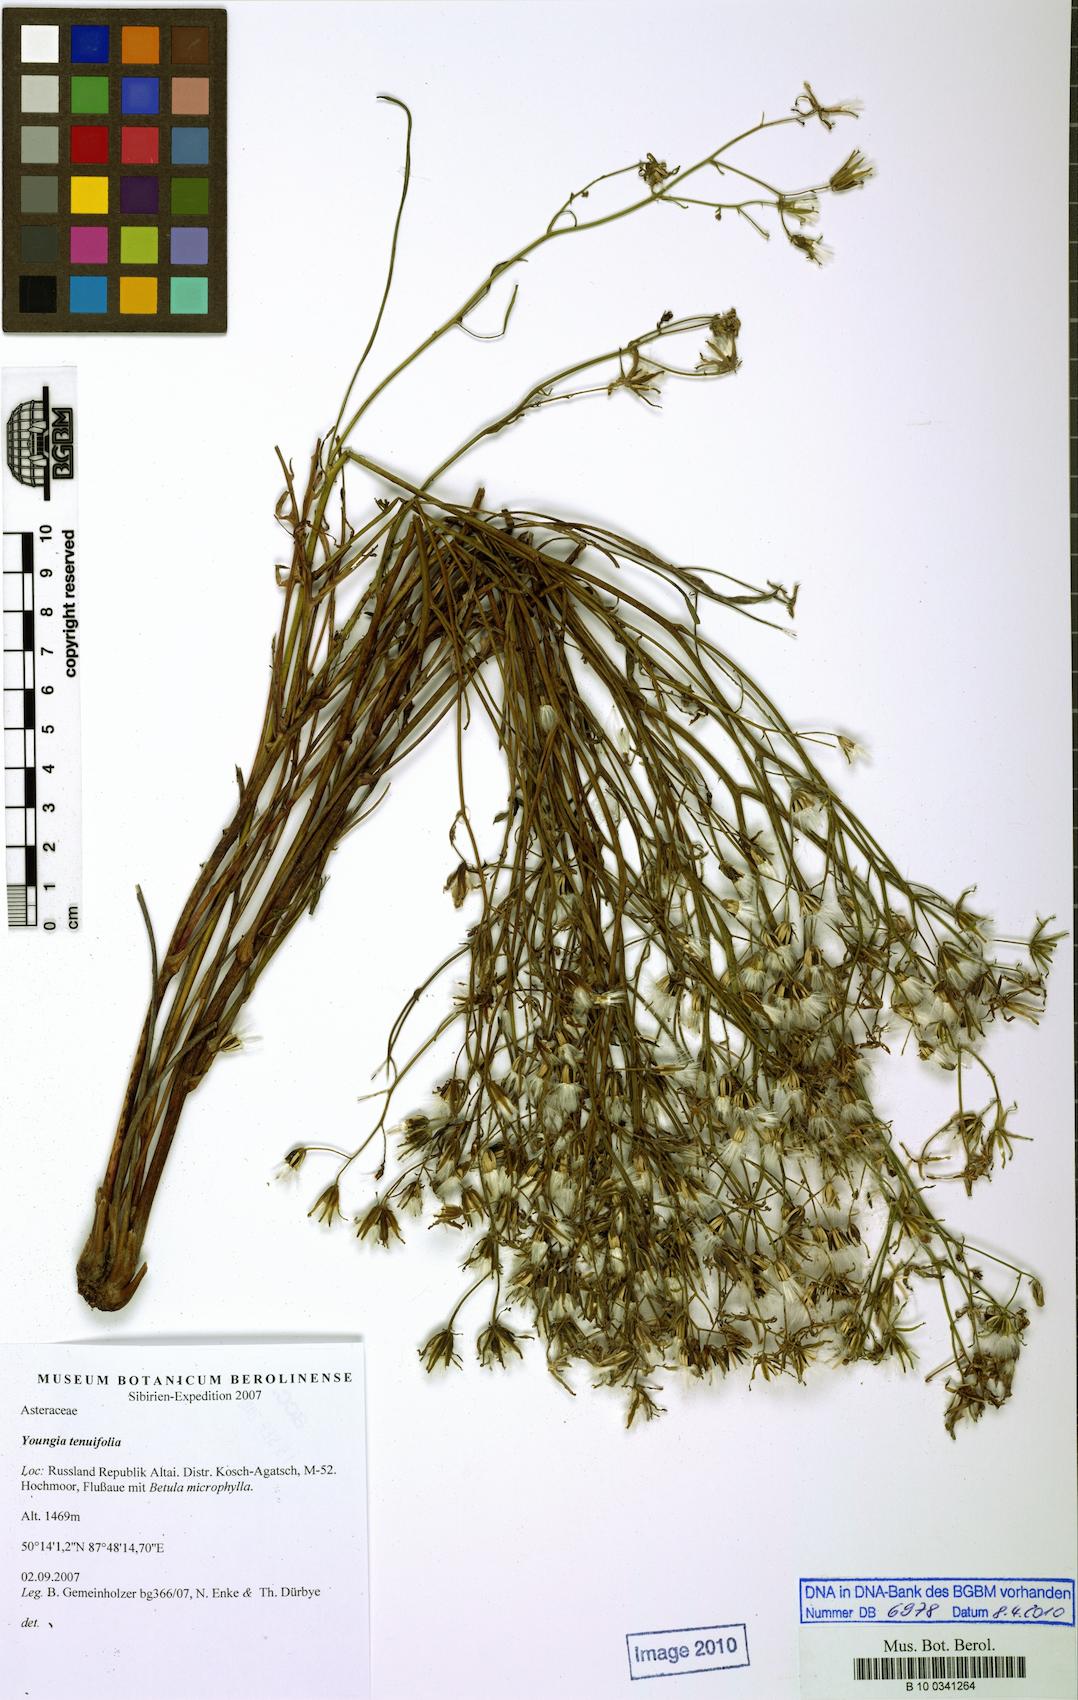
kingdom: Plantae
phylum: Tracheophyta
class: Magnoliopsida
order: Asterales
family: Asteraceae
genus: Crepidiastrum
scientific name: Crepidiastrum tenuifolium
